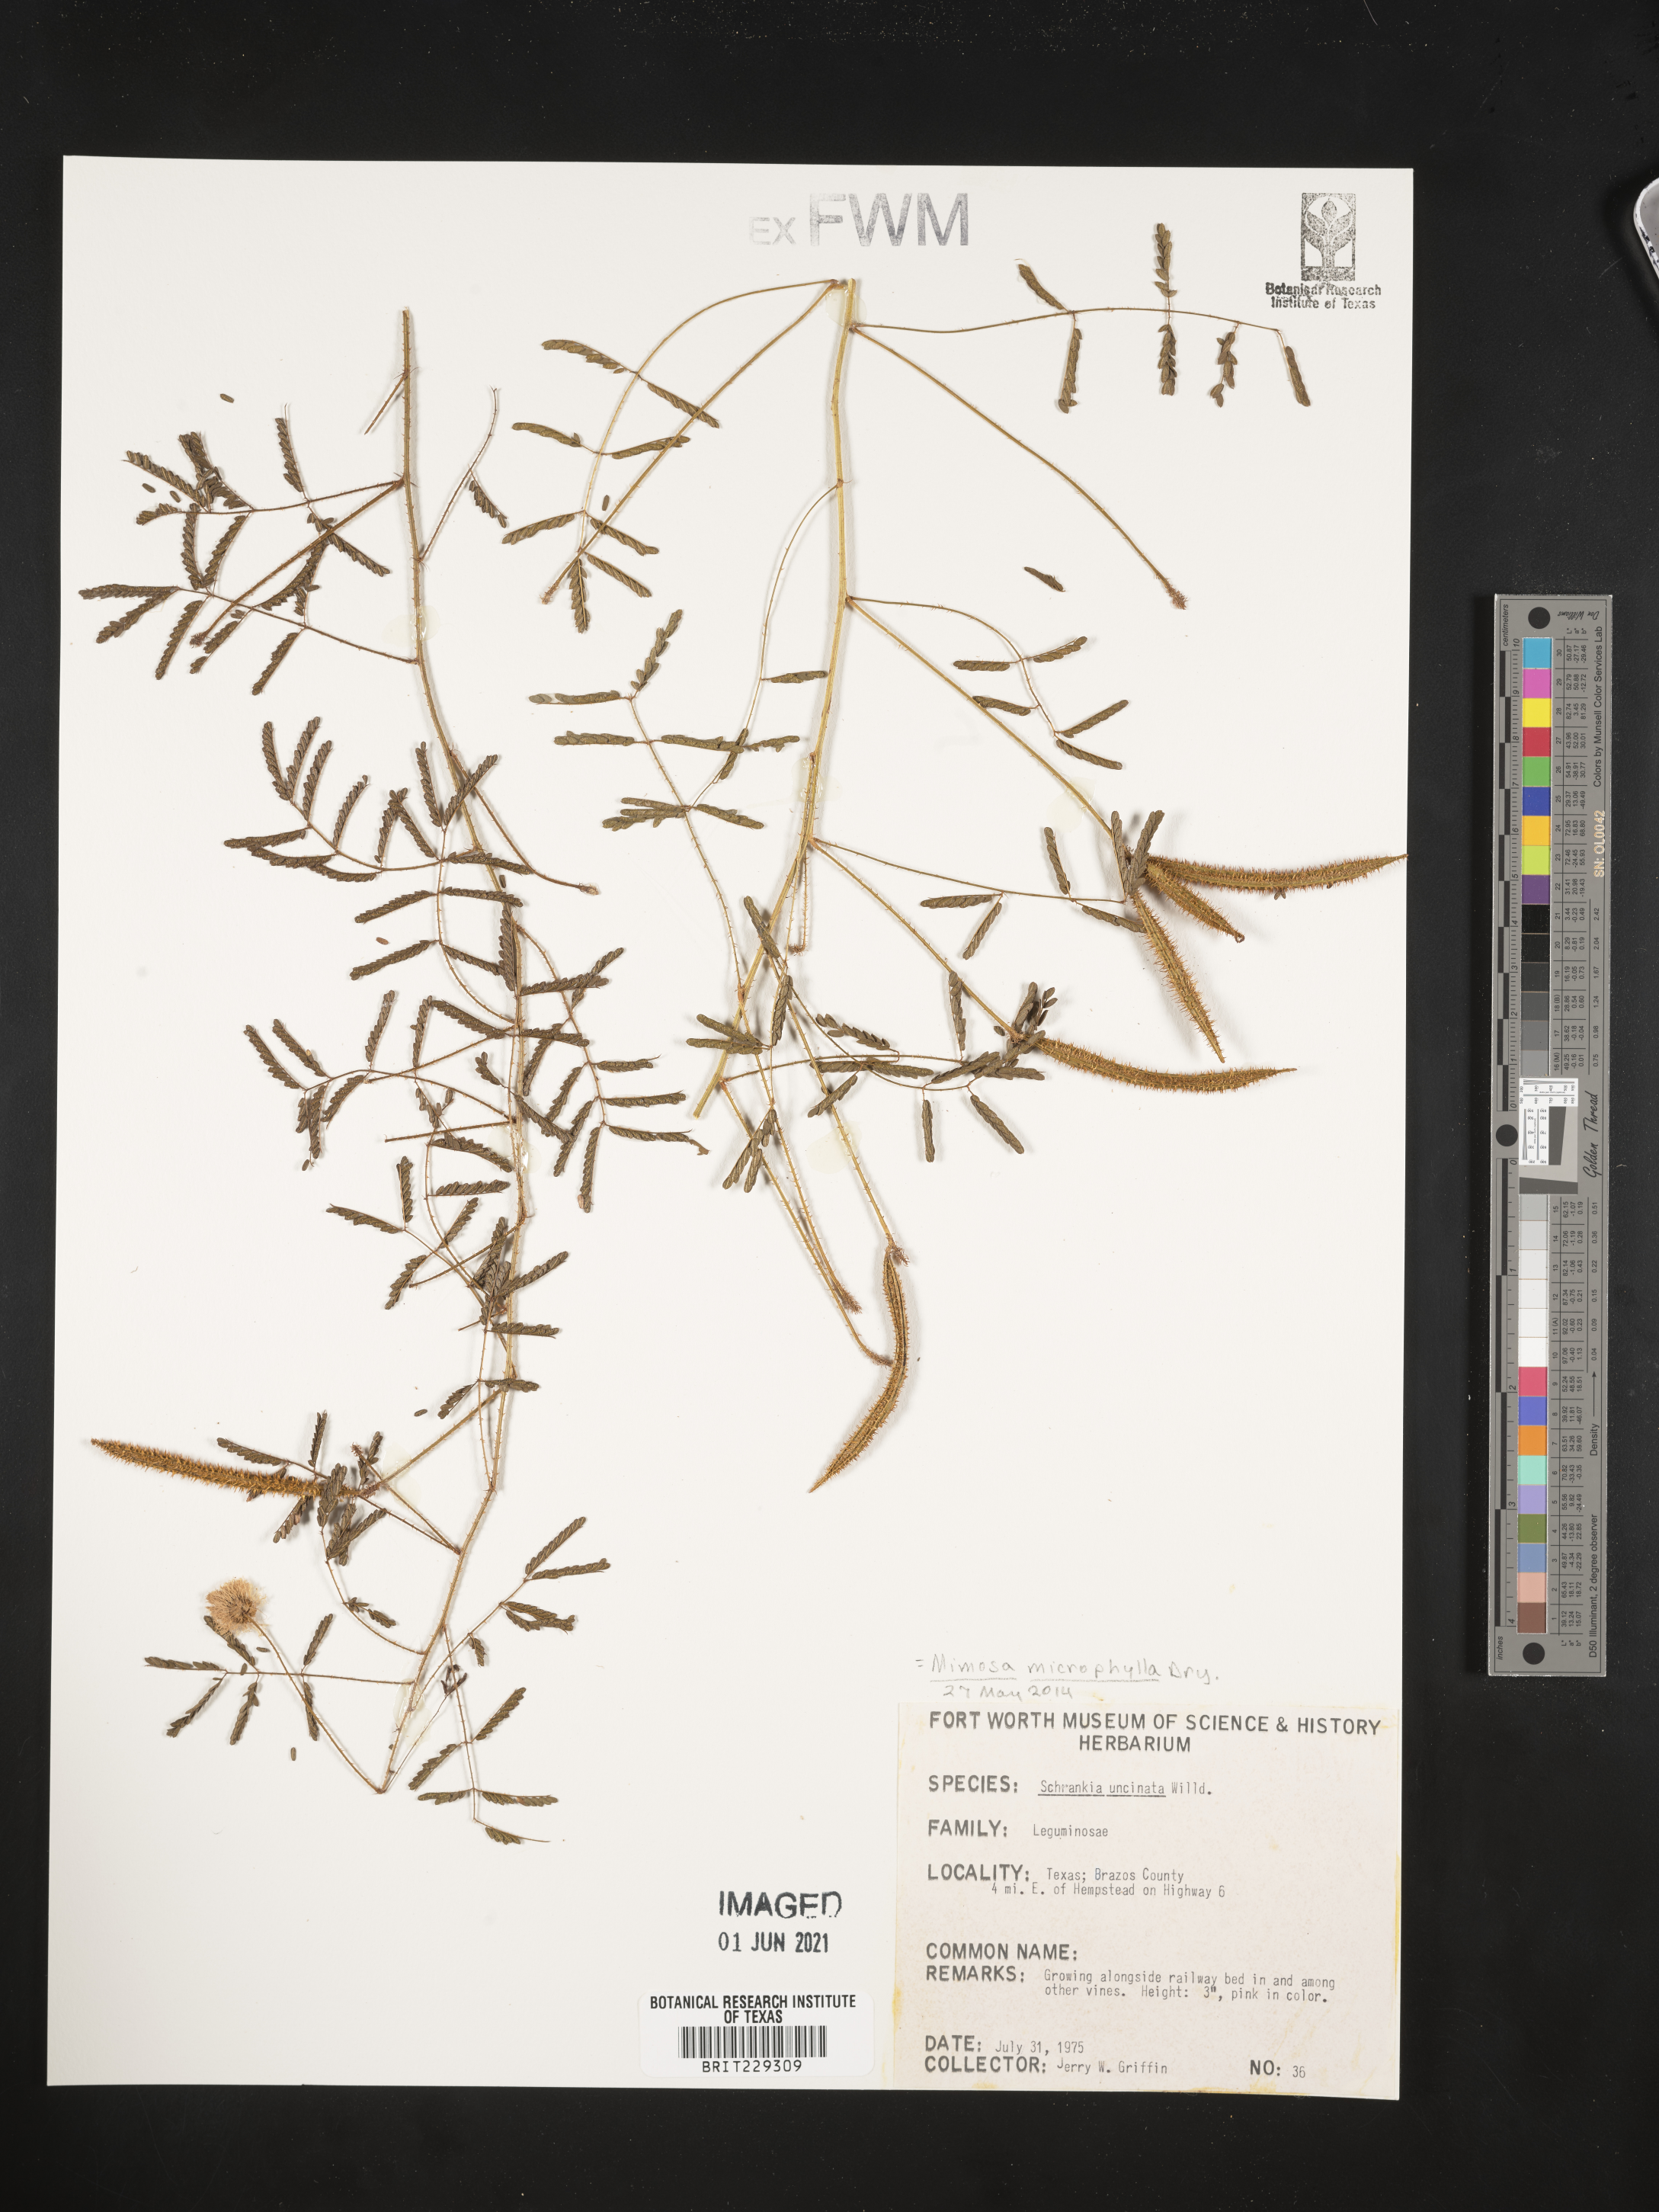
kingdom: Plantae
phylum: Tracheophyta
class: Magnoliopsida
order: Fabales
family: Fabaceae
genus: Mimosa
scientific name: Mimosa quadrivalvis
